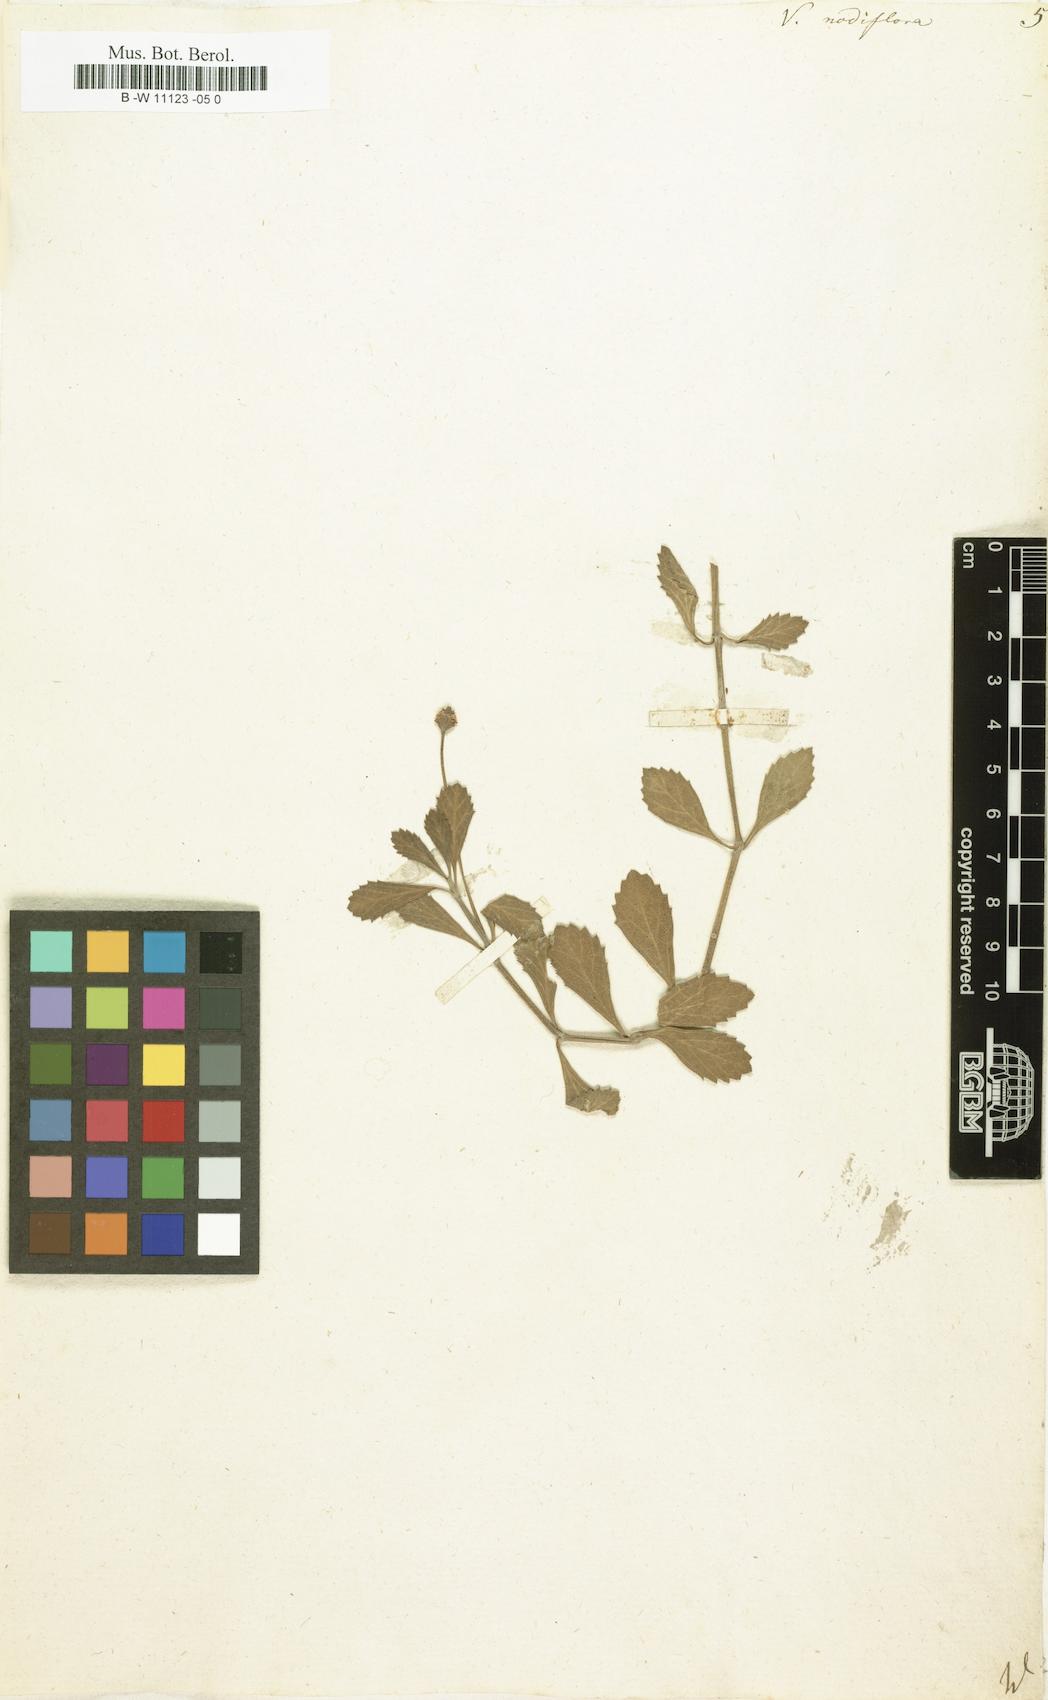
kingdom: Plantae
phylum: Tracheophyta
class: Magnoliopsida
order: Lamiales
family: Verbenaceae
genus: Verbena
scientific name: Verbena nodiflora
